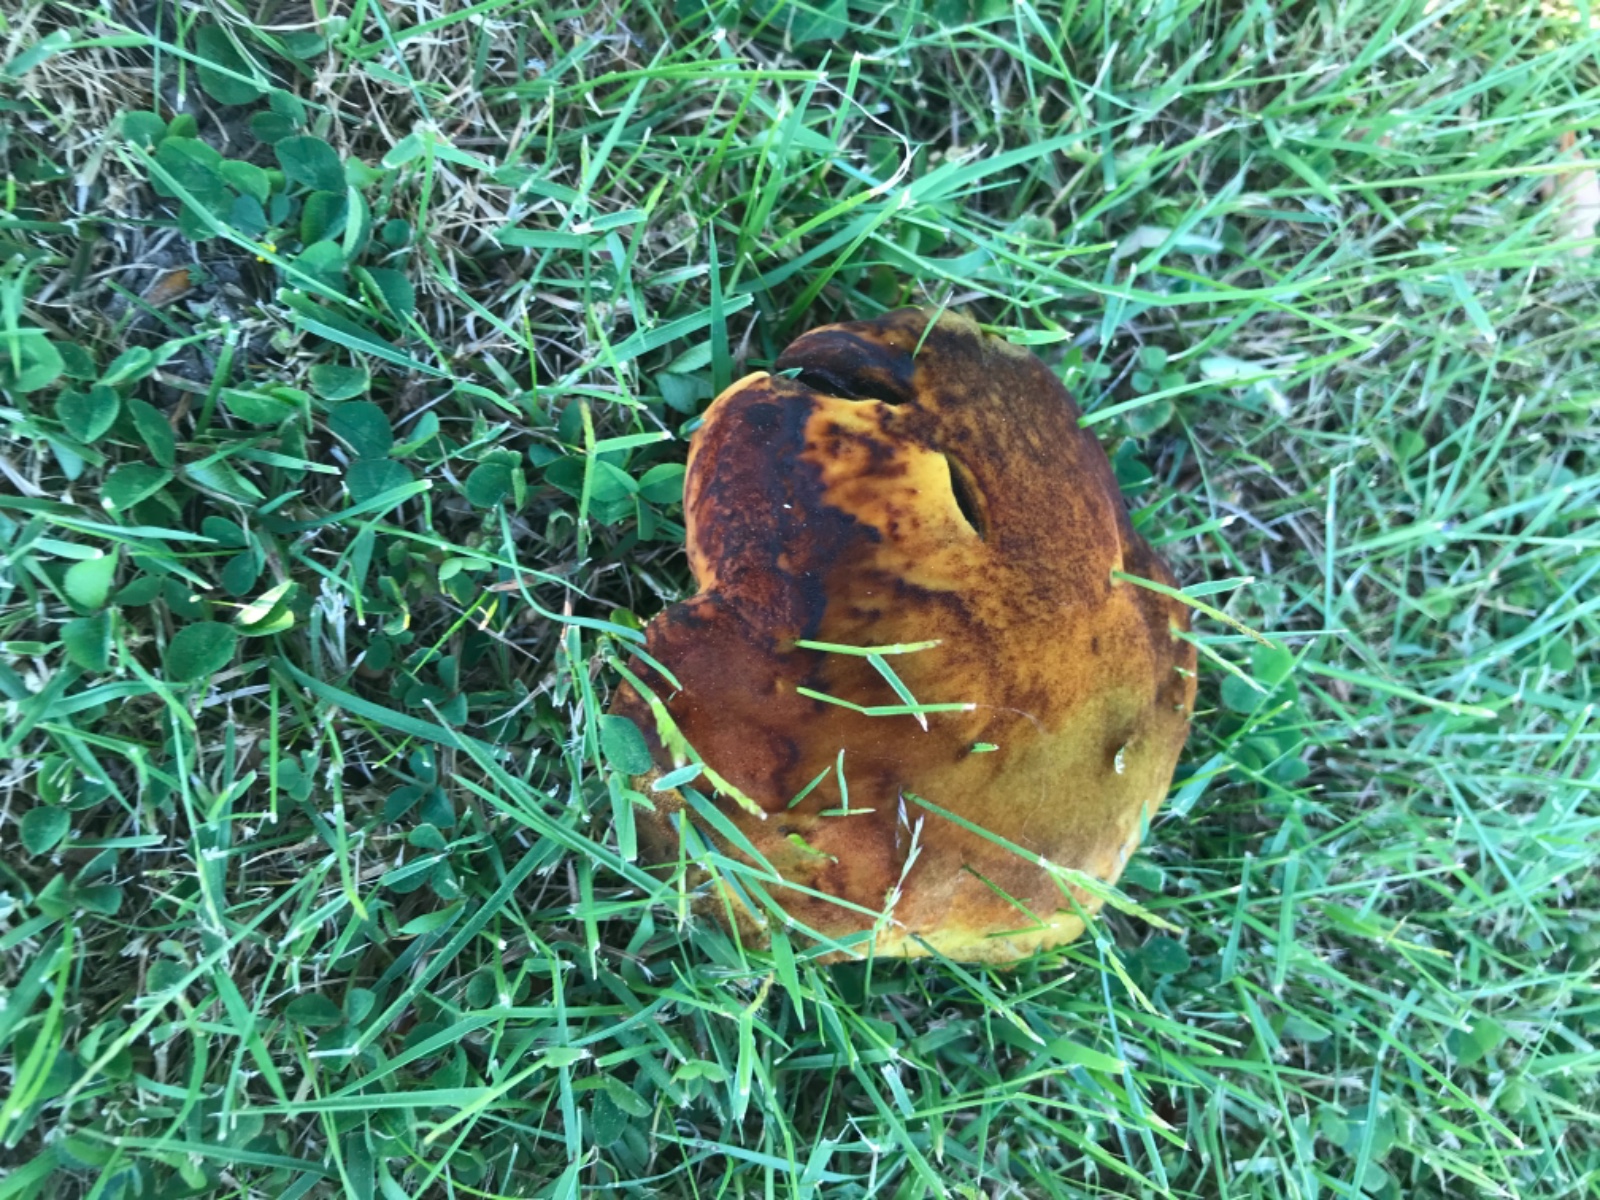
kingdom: Fungi
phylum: Basidiomycota
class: Agaricomycetes
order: Polyporales
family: Laetiporaceae
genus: Phaeolus
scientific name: Phaeolus schweinitzii
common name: brunporesvamp
